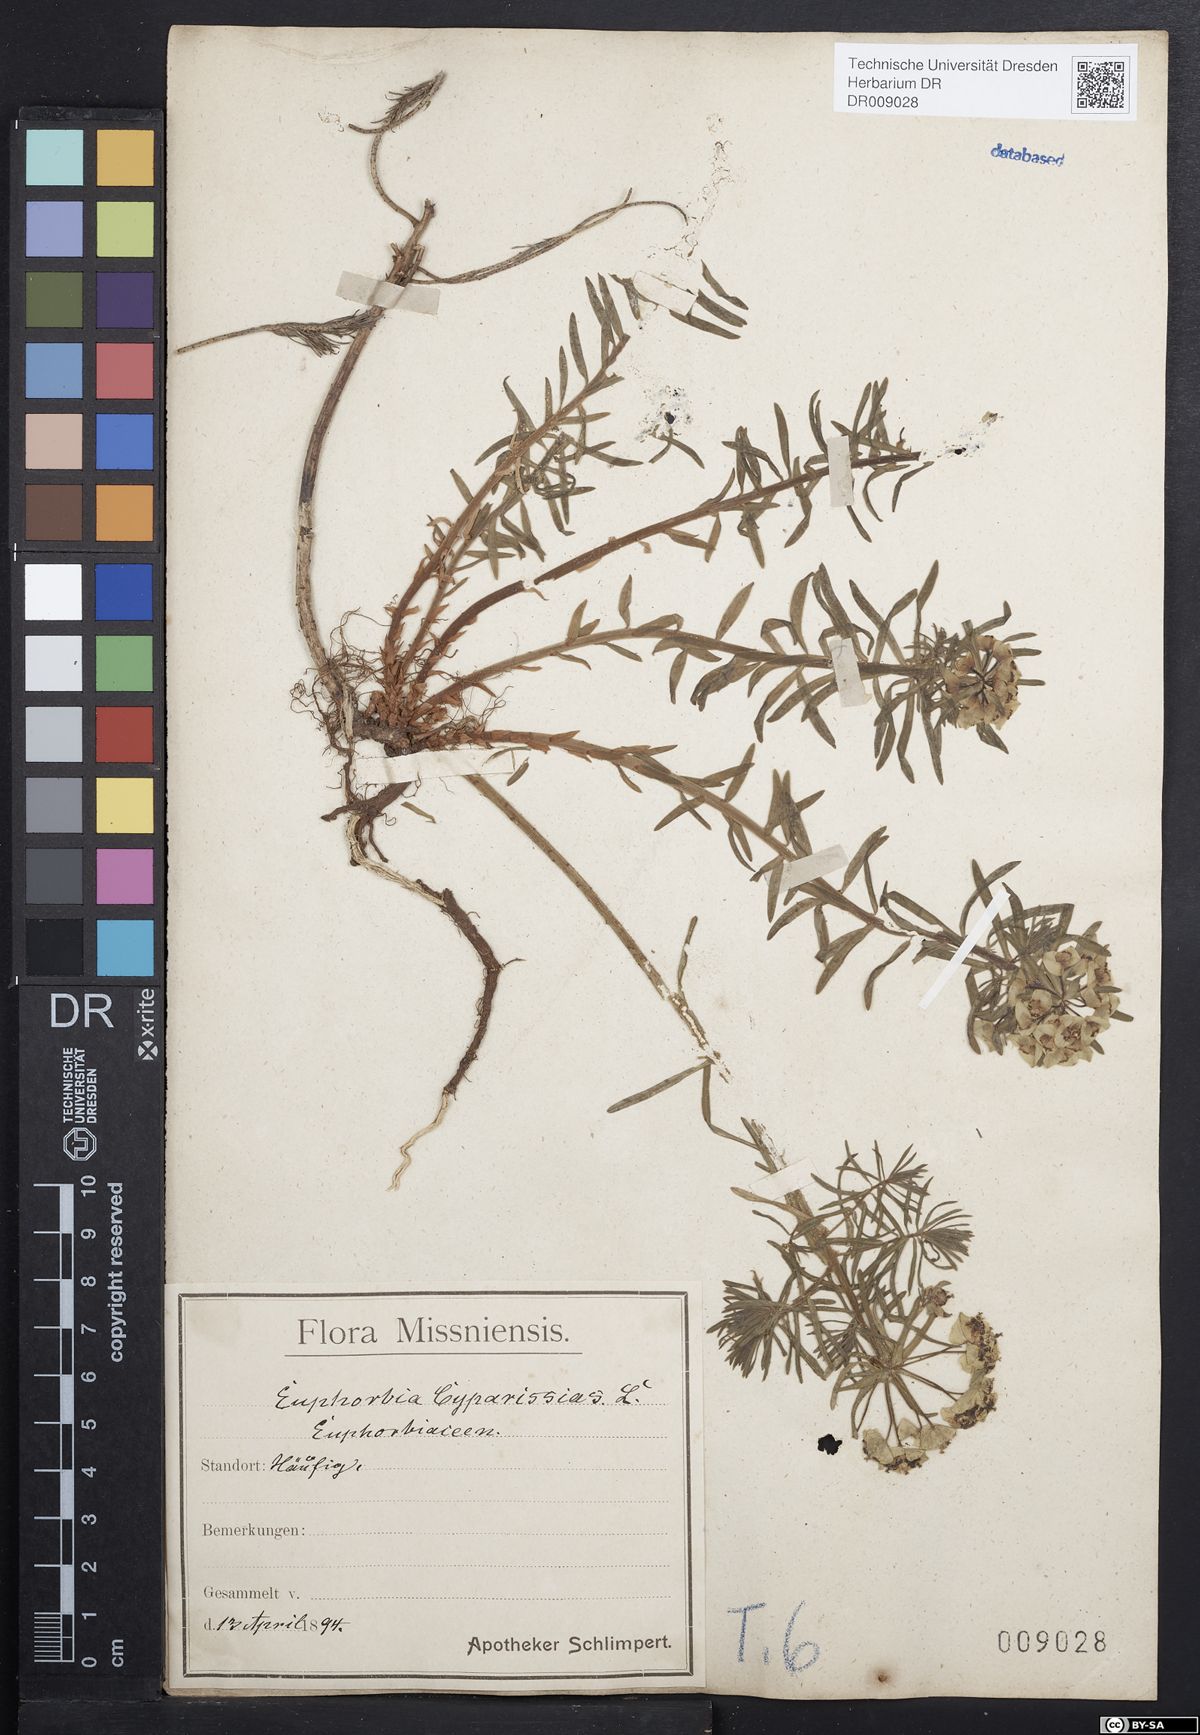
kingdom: Plantae
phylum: Tracheophyta
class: Magnoliopsida
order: Malpighiales
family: Euphorbiaceae
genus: Euphorbia
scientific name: Euphorbia cyparissias
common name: Cypress spurge
